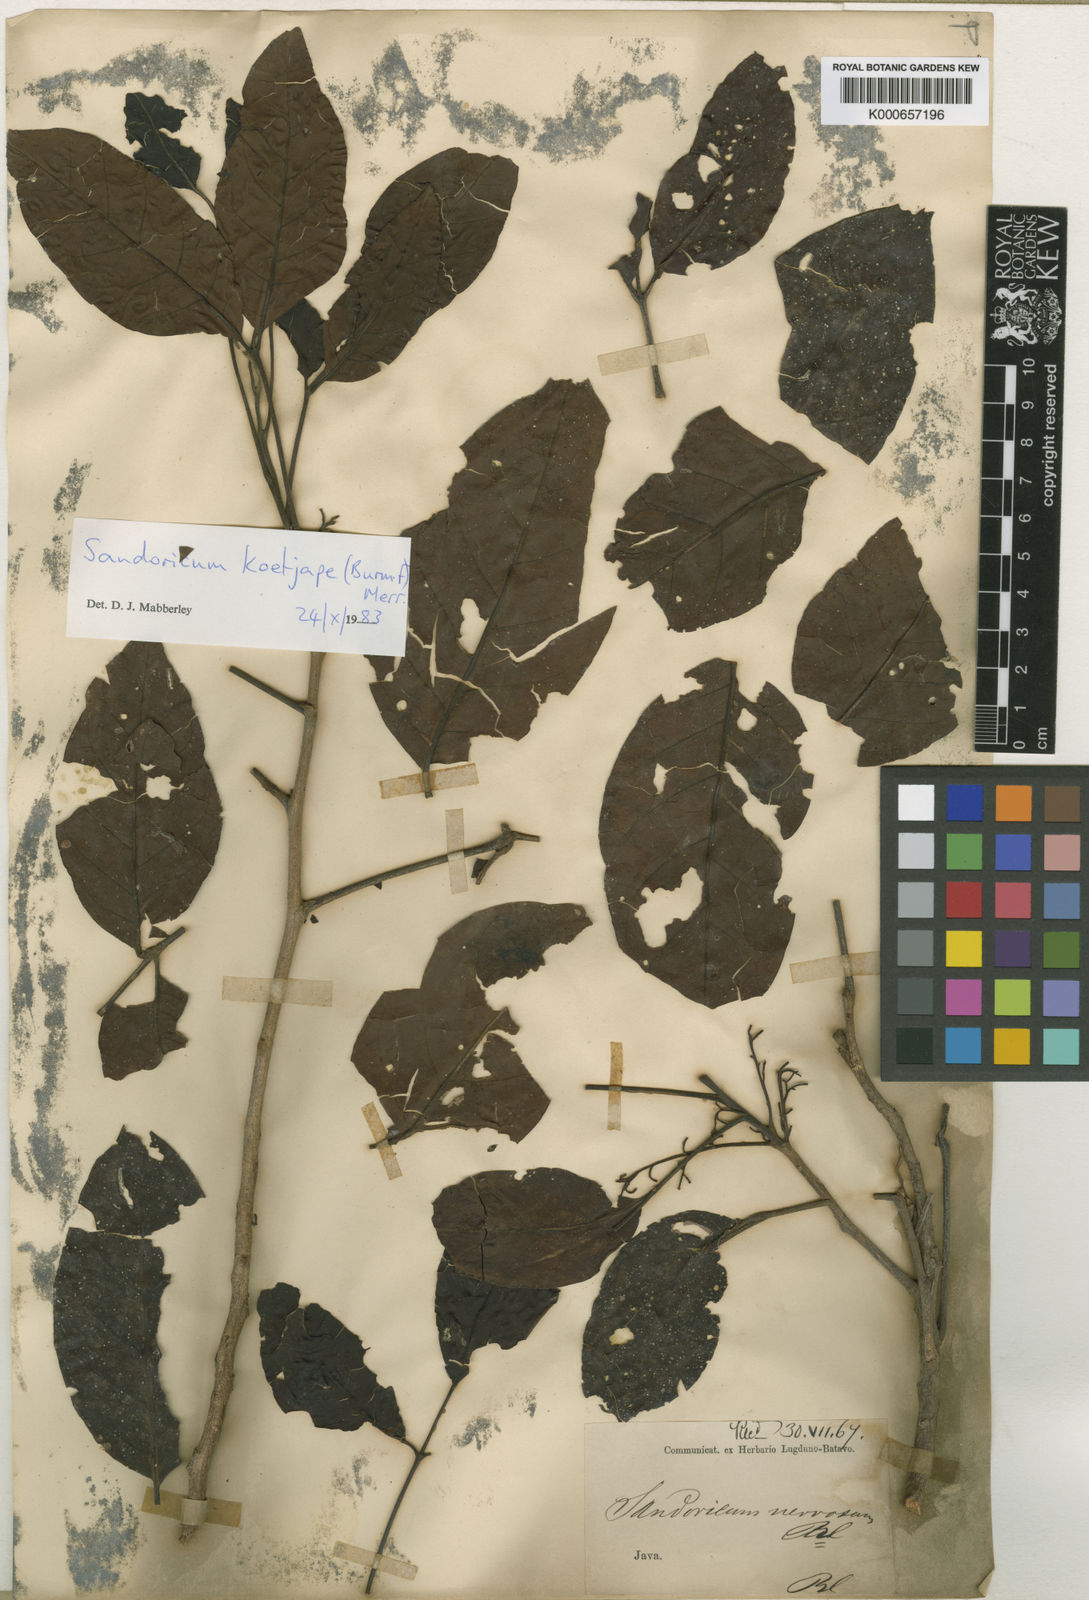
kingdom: Plantae
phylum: Tracheophyta
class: Magnoliopsida
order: Sapindales
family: Meliaceae
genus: Sandoricum
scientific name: Sandoricum koetjape
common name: Santol
